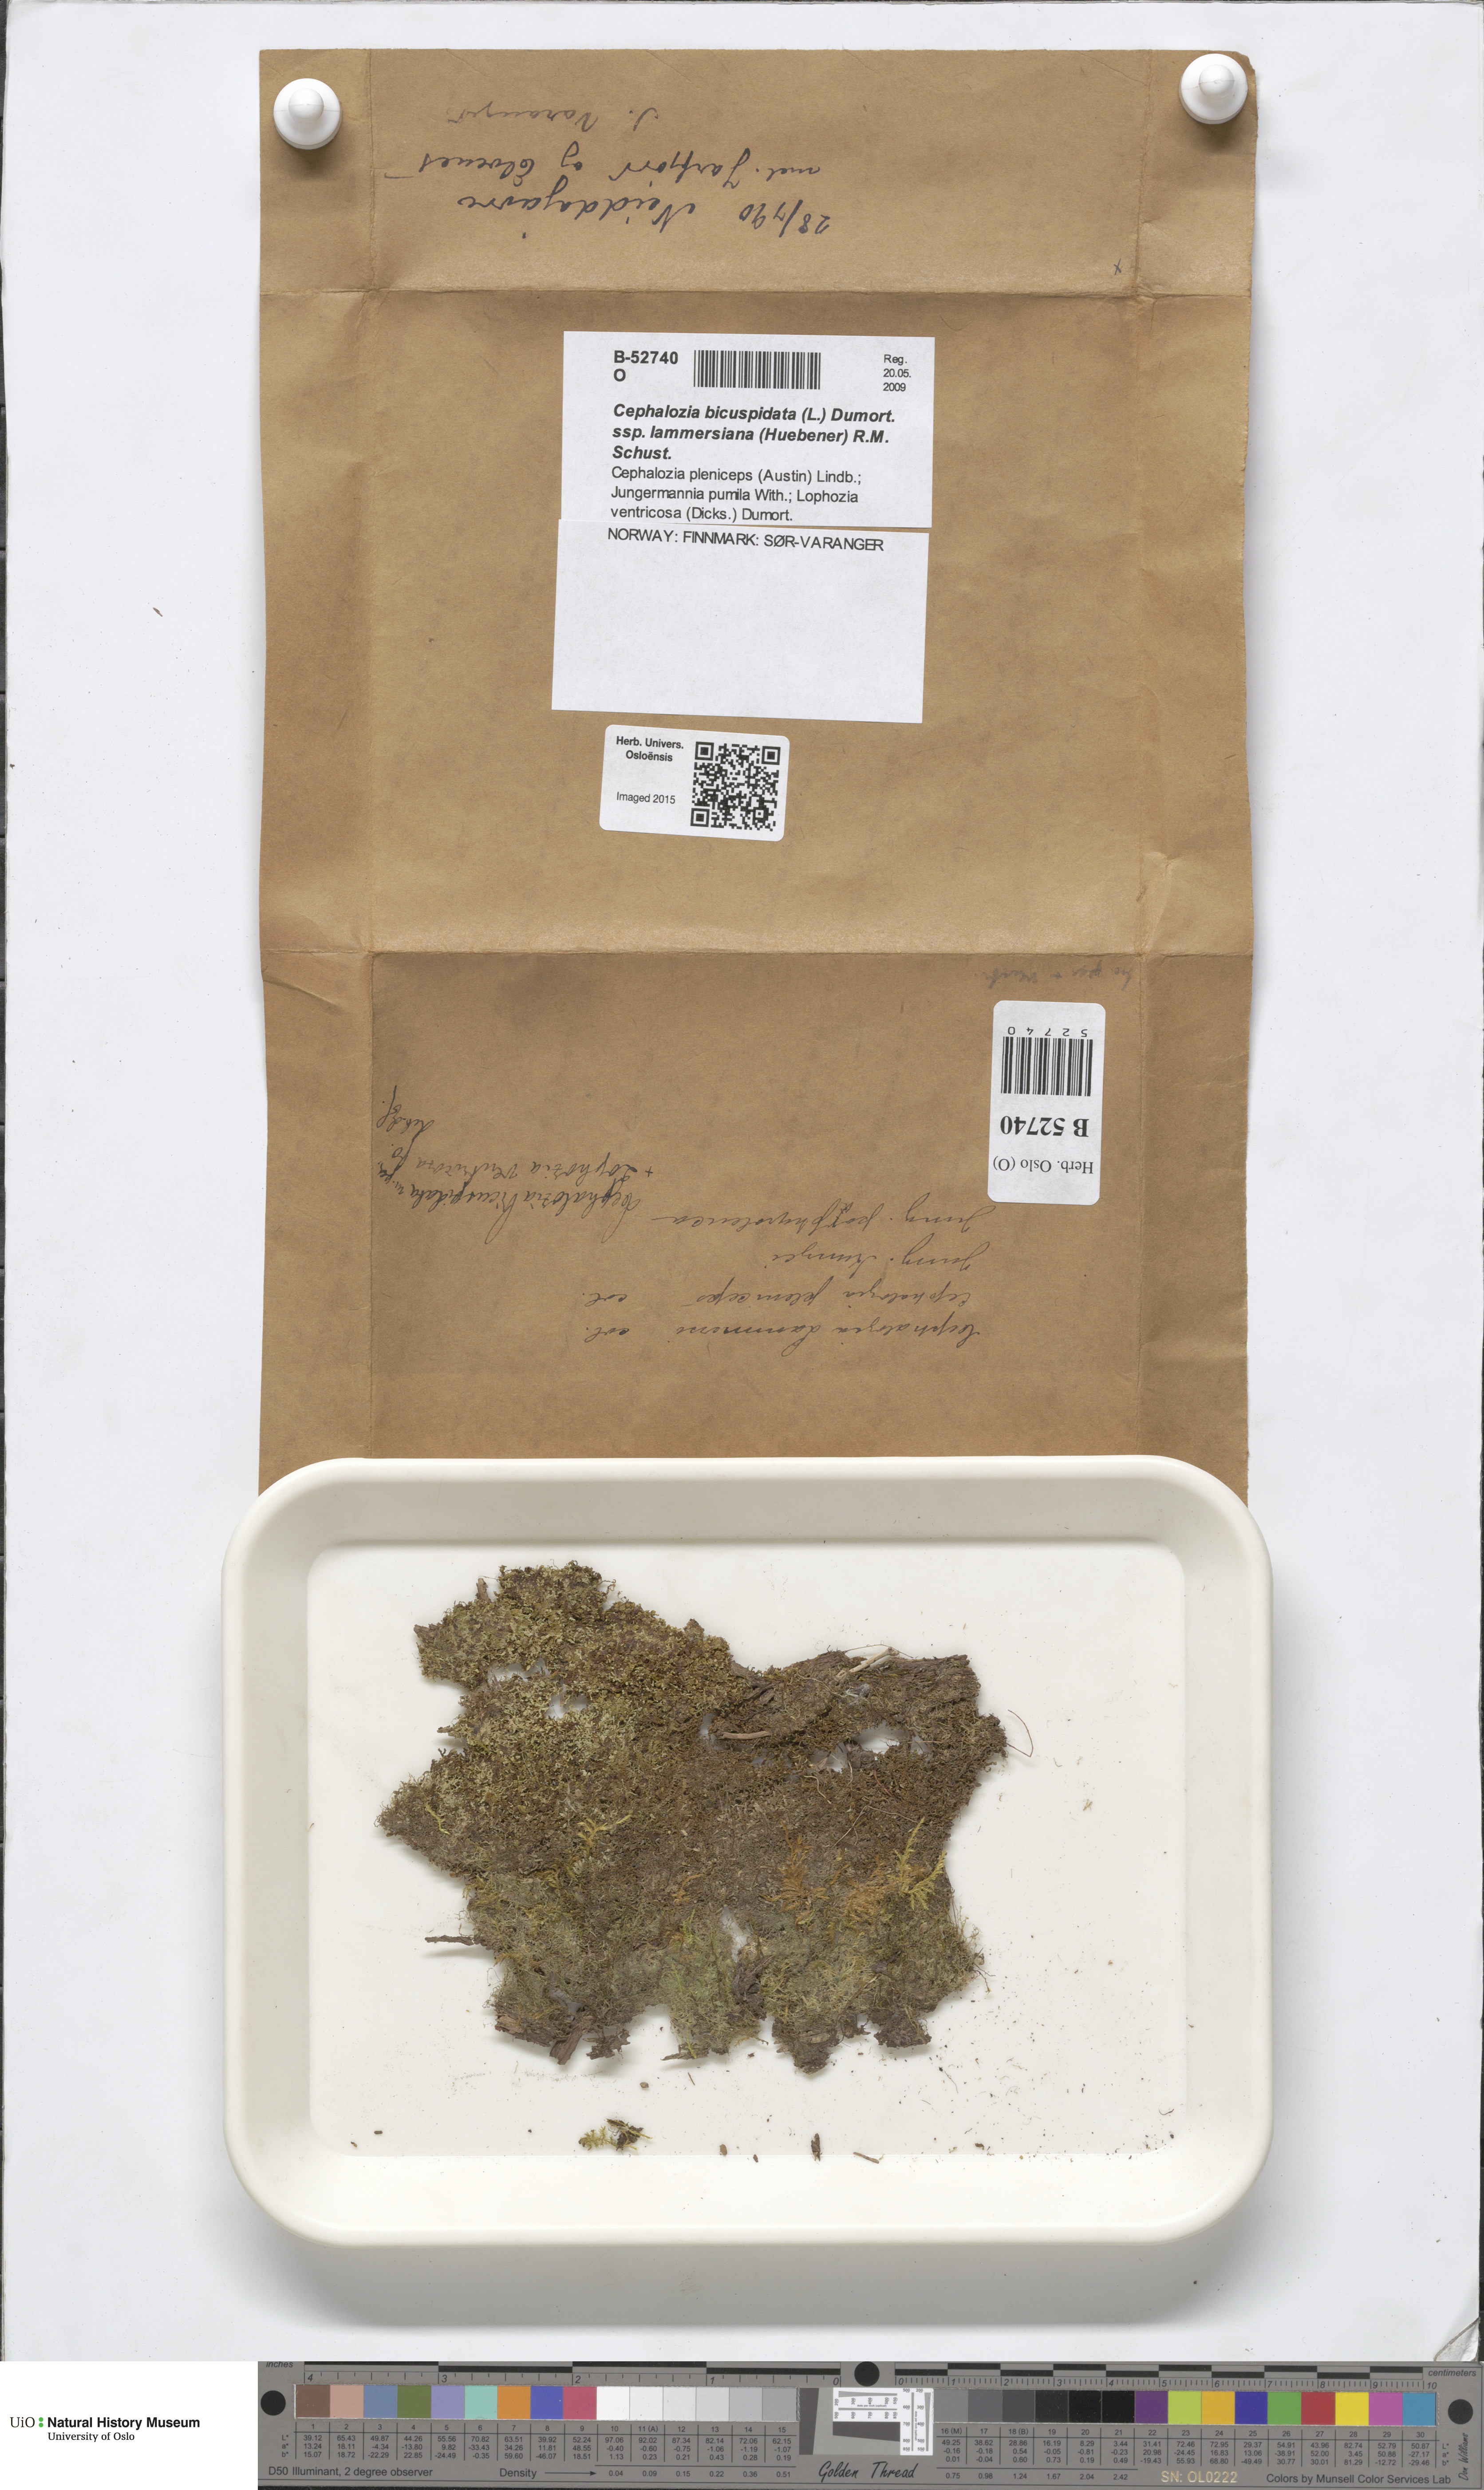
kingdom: Plantae
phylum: Marchantiophyta
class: Jungermanniopsida
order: Jungermanniales
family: Cephaloziaceae
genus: Cephalozia
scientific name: Cephalozia bicuspidata
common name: Two-horned pincerwort
